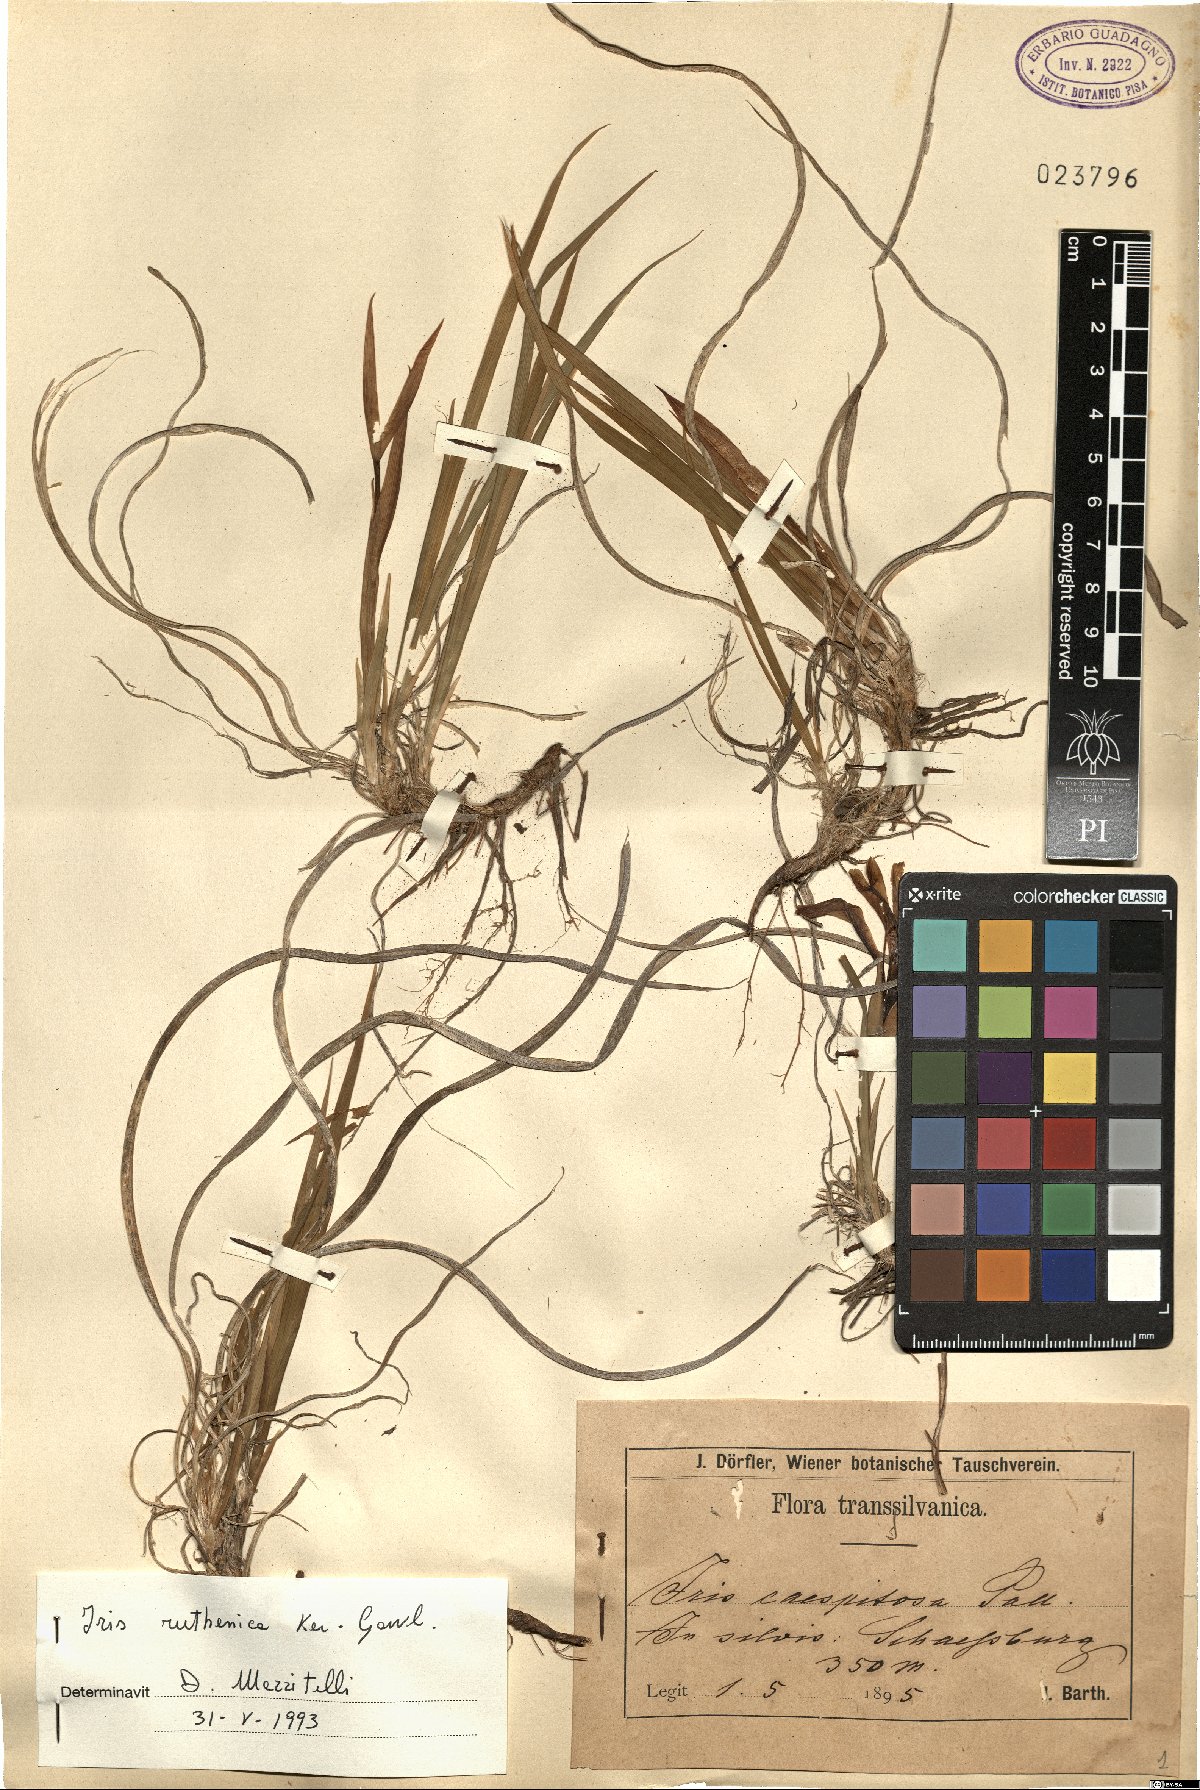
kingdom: Plantae
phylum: Tracheophyta
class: Liliopsida
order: Asparagales
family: Iridaceae
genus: Iris
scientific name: Iris ruthenica
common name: Purple-bract iris
